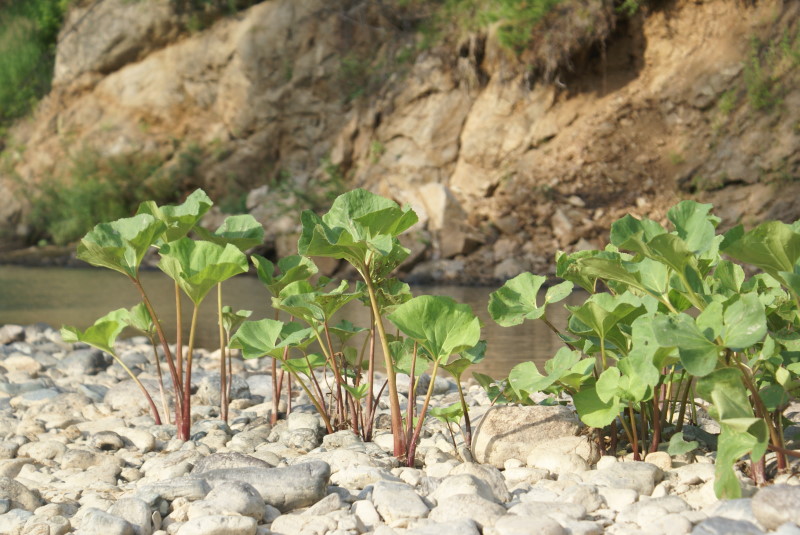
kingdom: Plantae
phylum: Tracheophyta
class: Magnoliopsida
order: Asterales
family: Asteraceae
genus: Petasites
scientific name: Petasites radiatus
